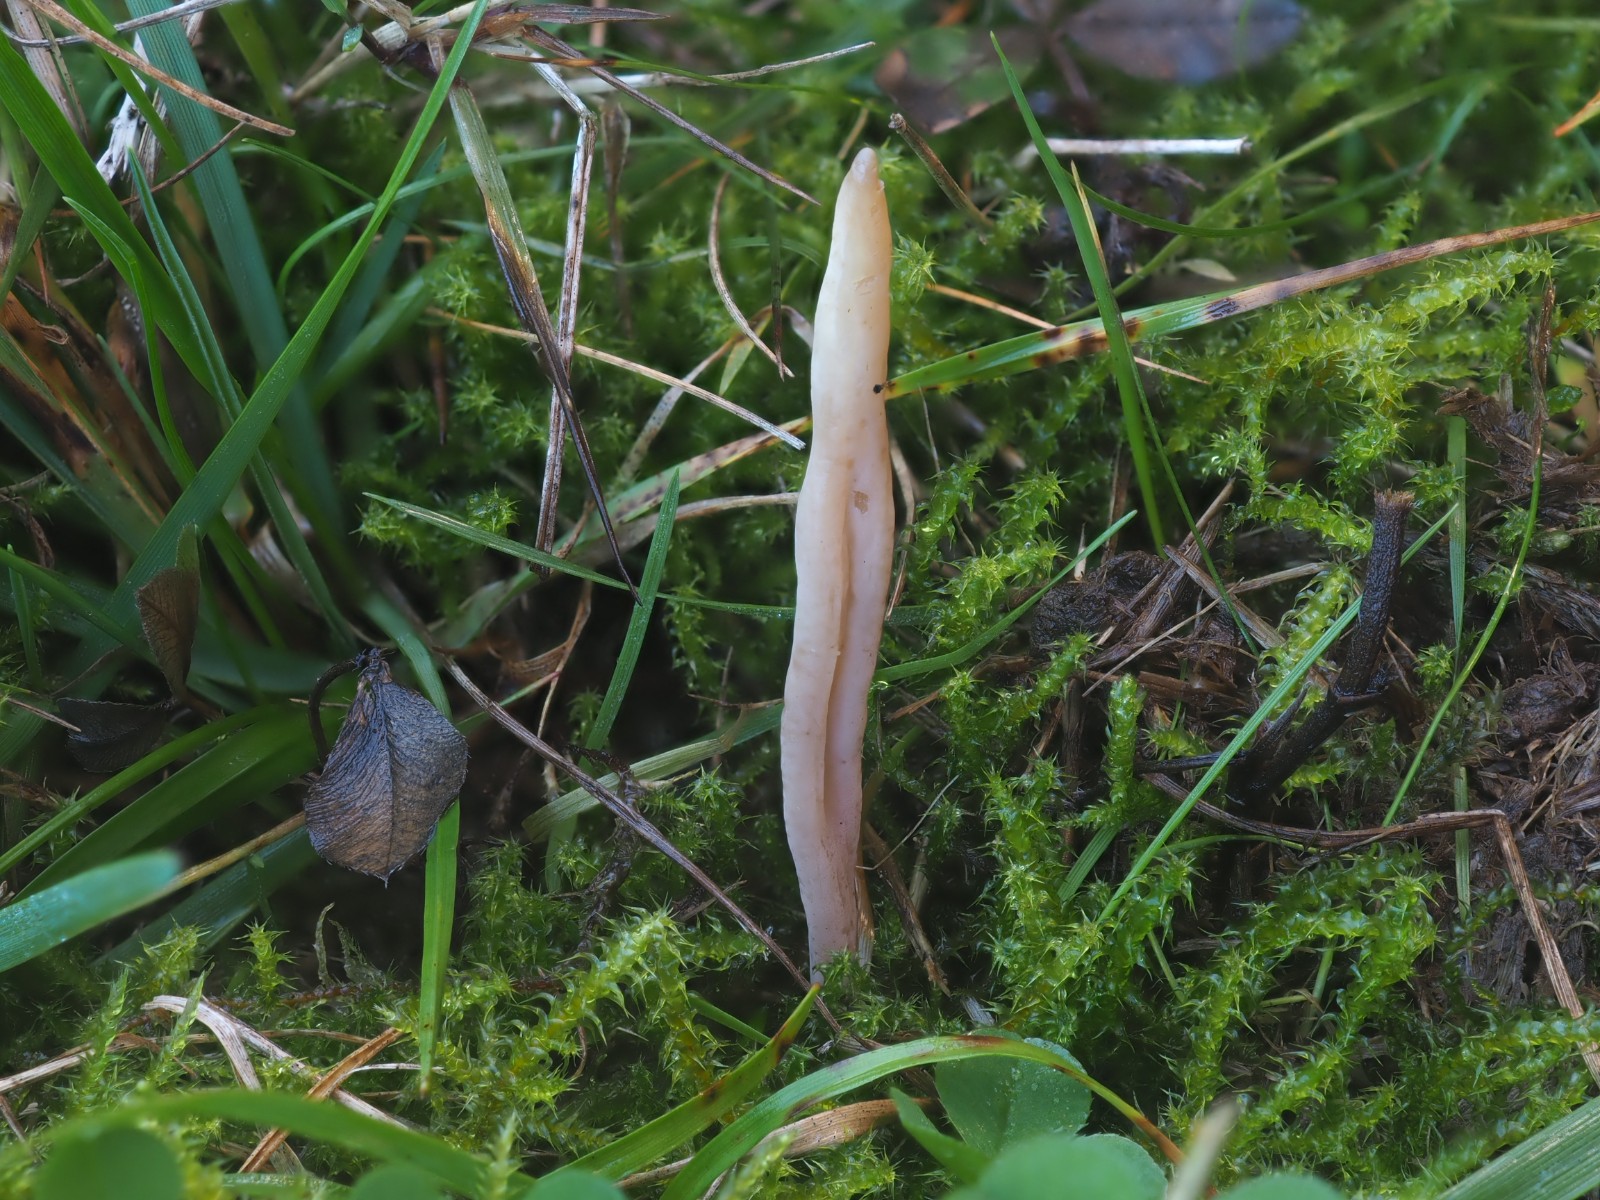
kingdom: Fungi
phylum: Basidiomycota
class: Agaricomycetes
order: Agaricales
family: Clavariaceae
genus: Clavaria
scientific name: Clavaria
